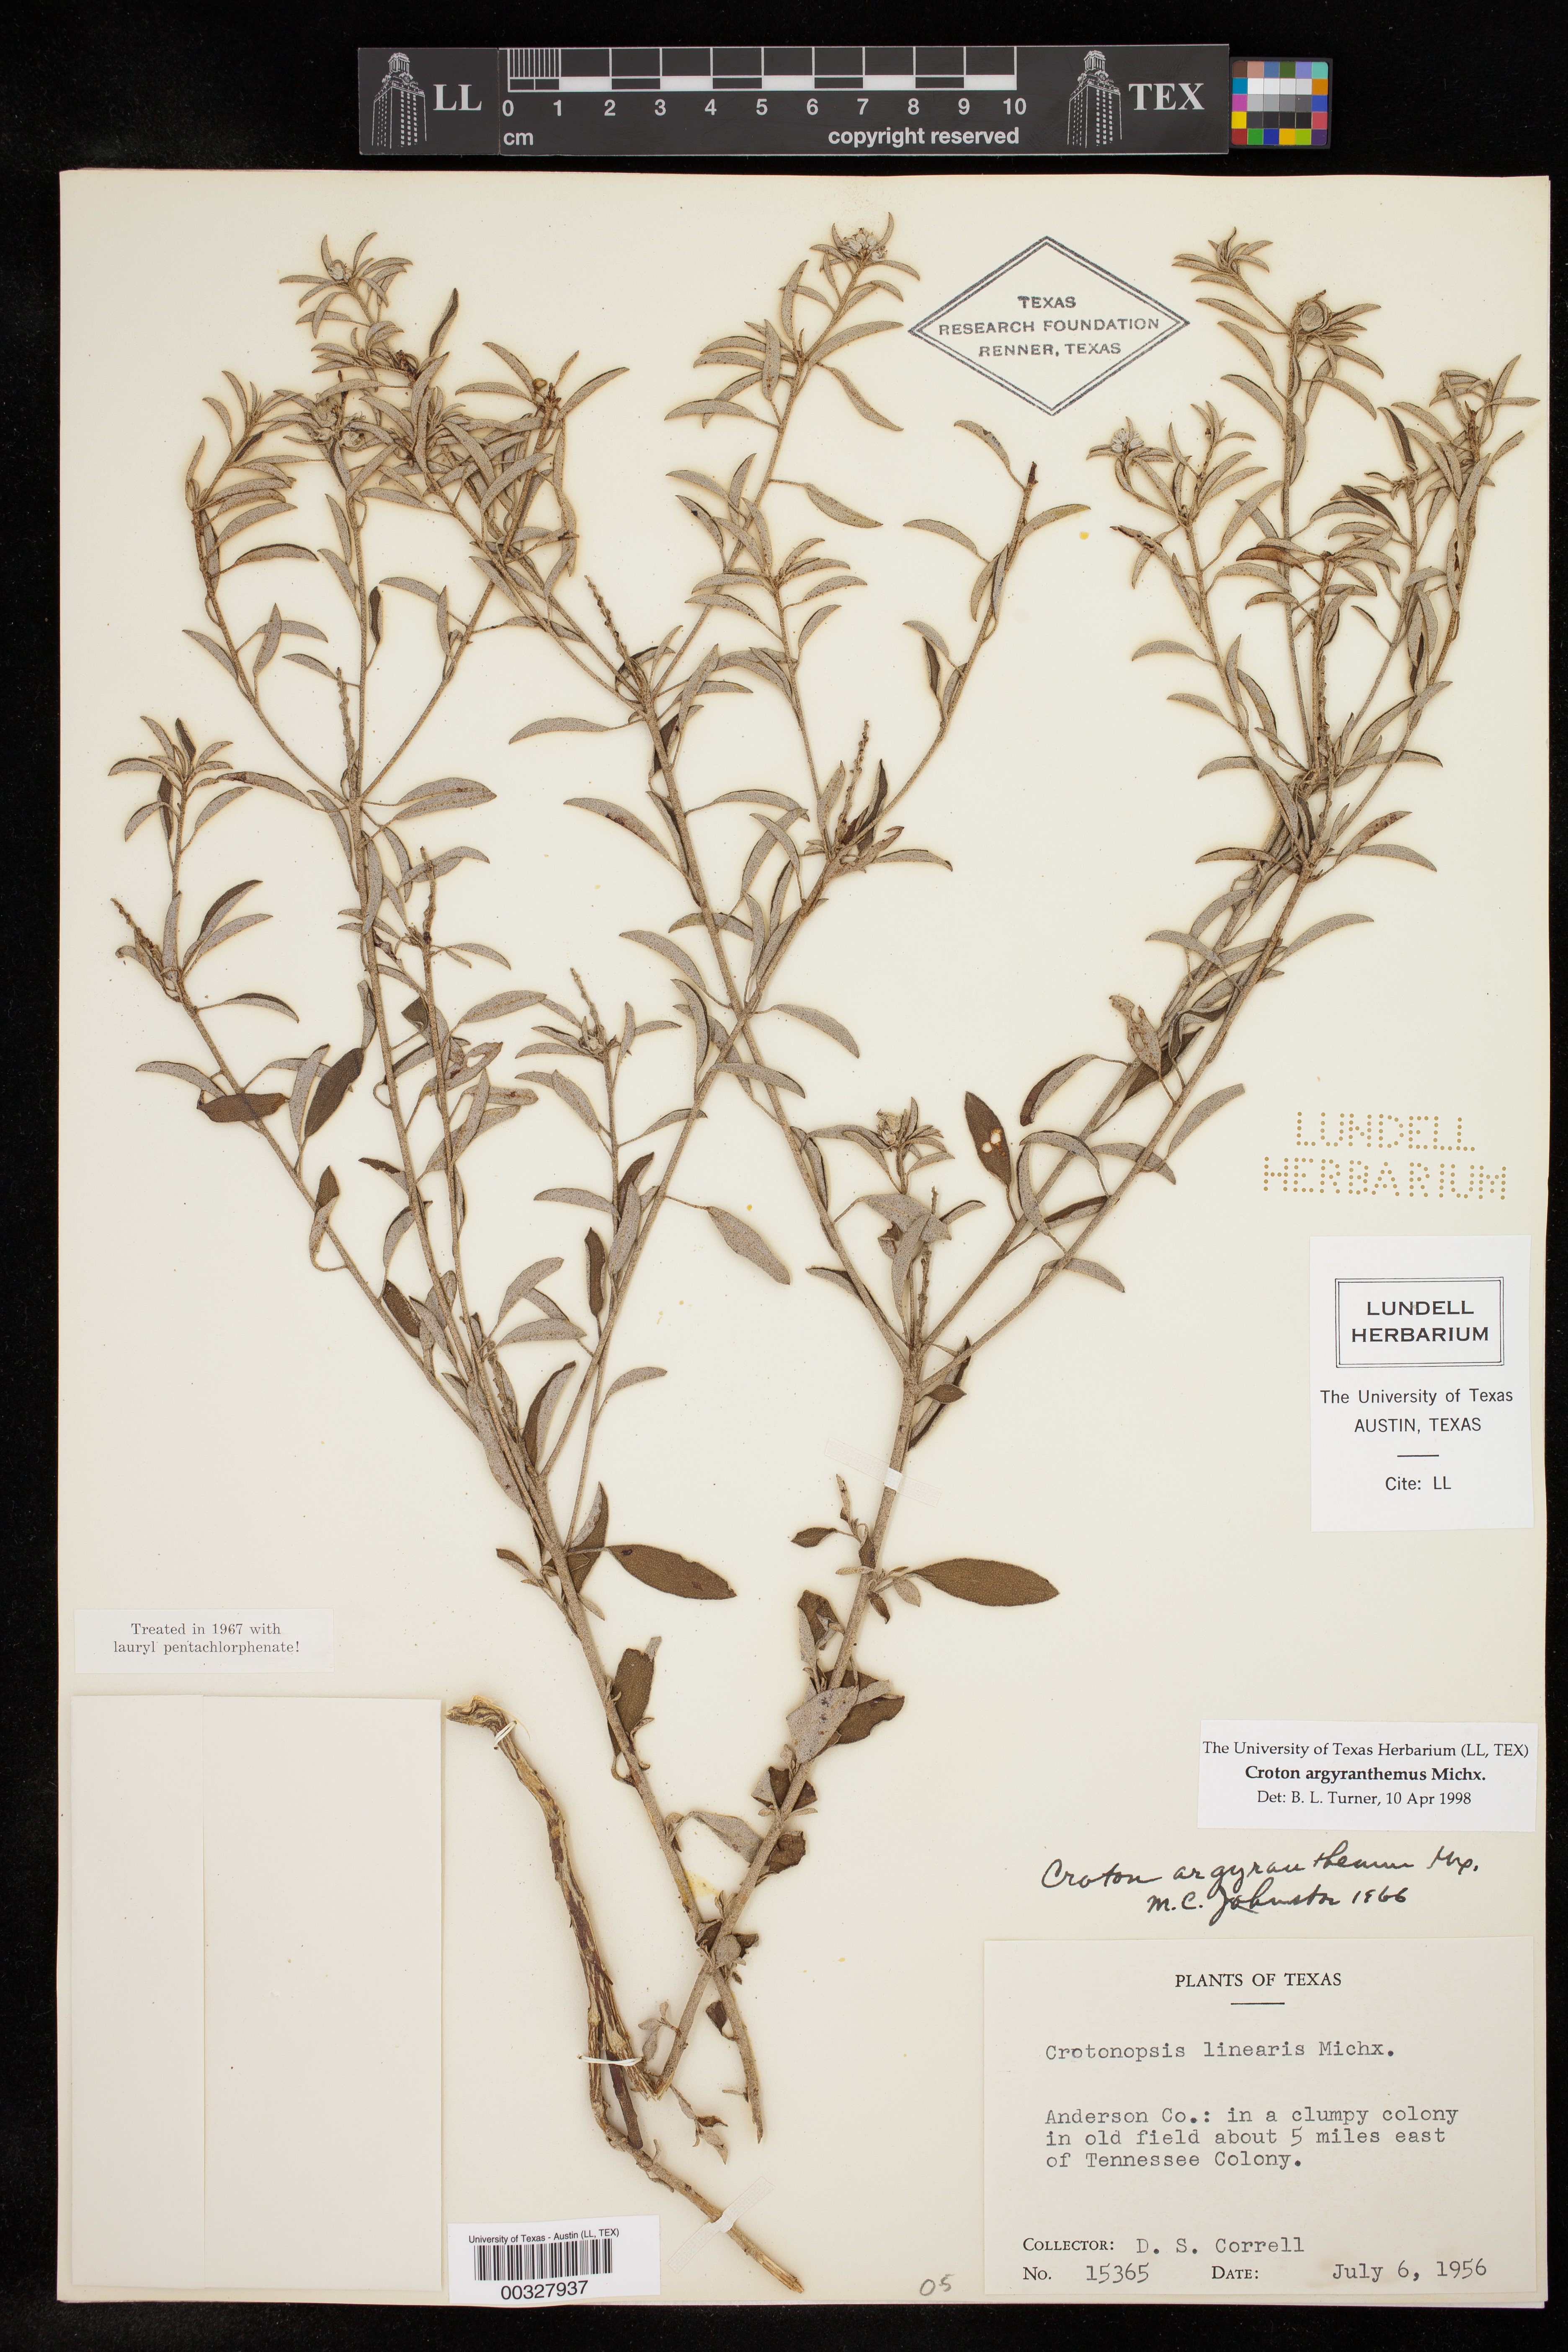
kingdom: Plantae
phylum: Tracheophyta
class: Magnoliopsida
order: Malpighiales
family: Euphorbiaceae
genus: Croton
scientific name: Croton argyranthemus
